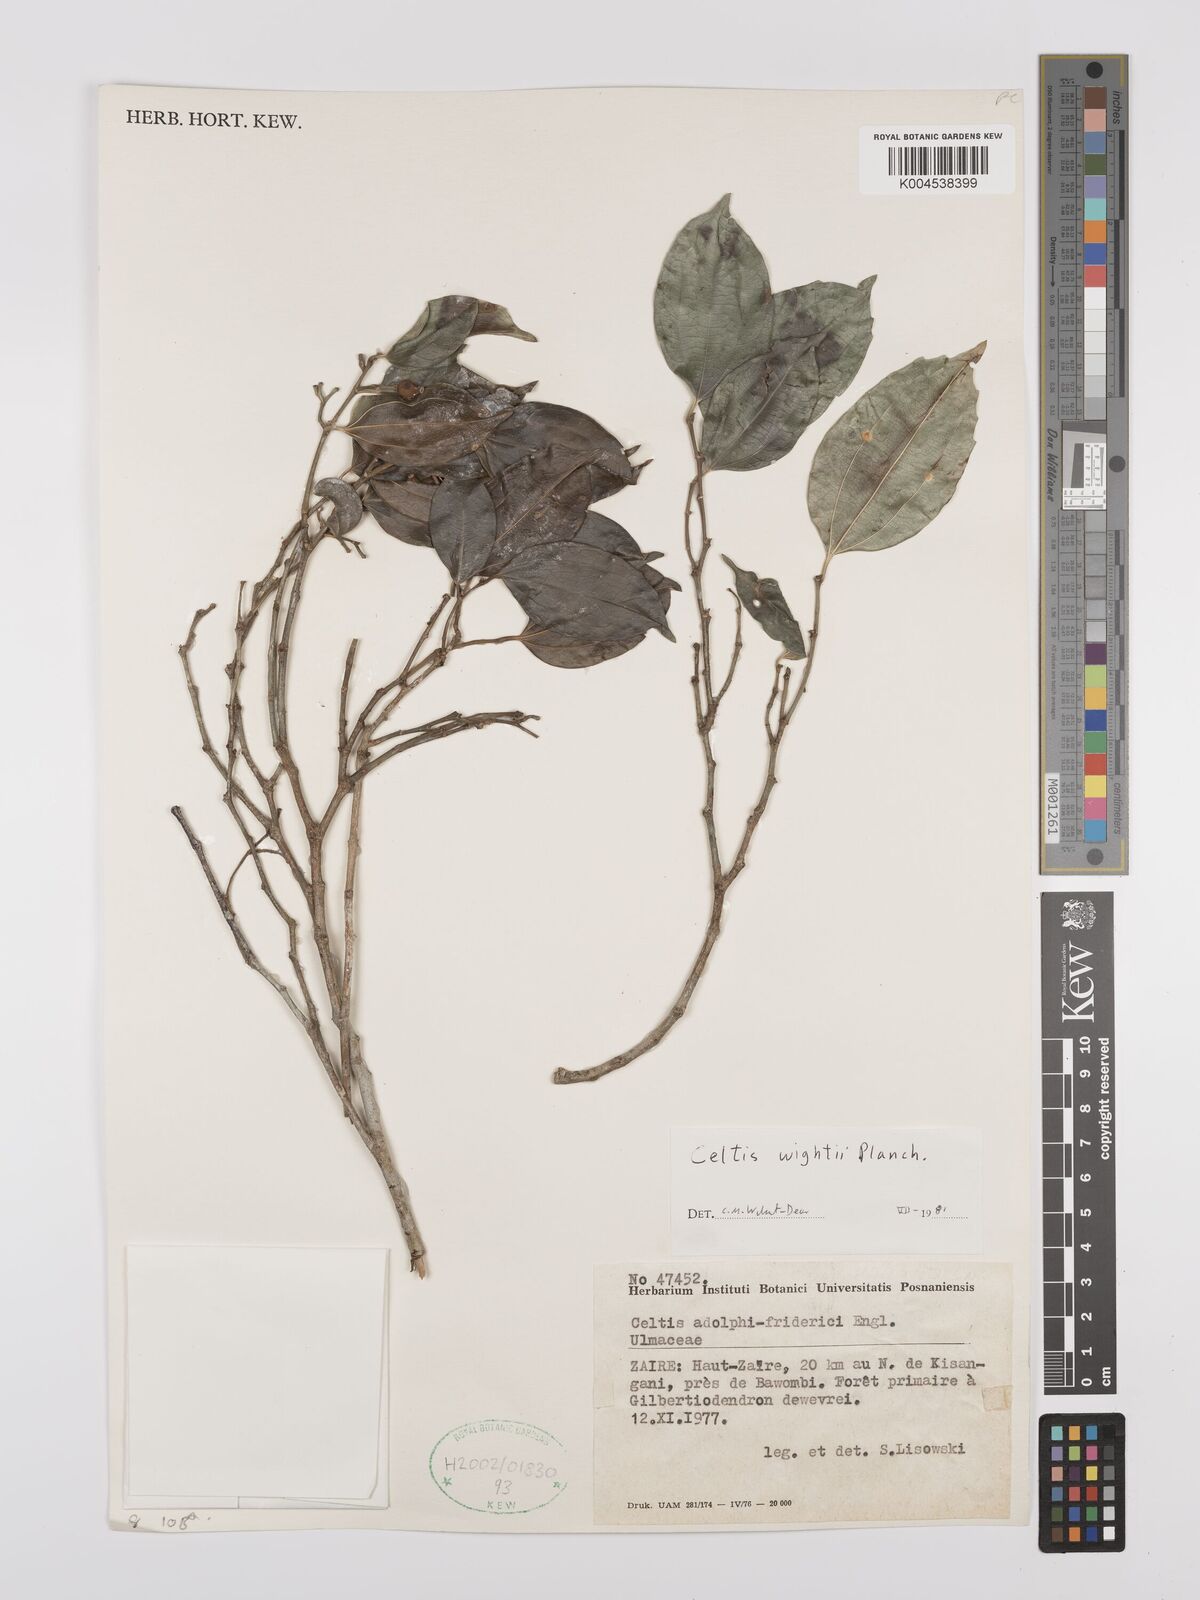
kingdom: Plantae
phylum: Tracheophyta
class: Magnoliopsida
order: Rosales
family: Cannabaceae
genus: Celtis
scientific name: Celtis philippensis
